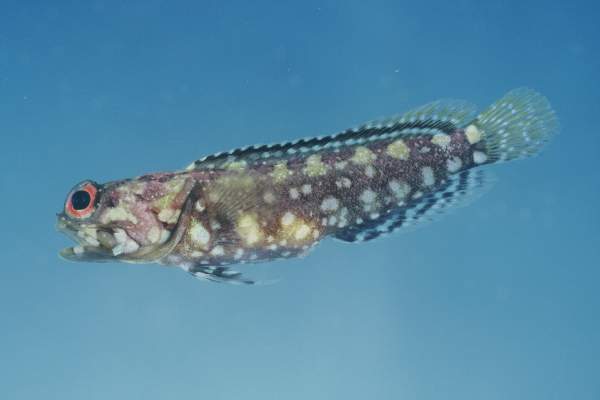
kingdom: Animalia
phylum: Chordata
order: Perciformes
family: Opistognathidae
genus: Opistognathus
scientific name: Opistognathus afer
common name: African jawfish
